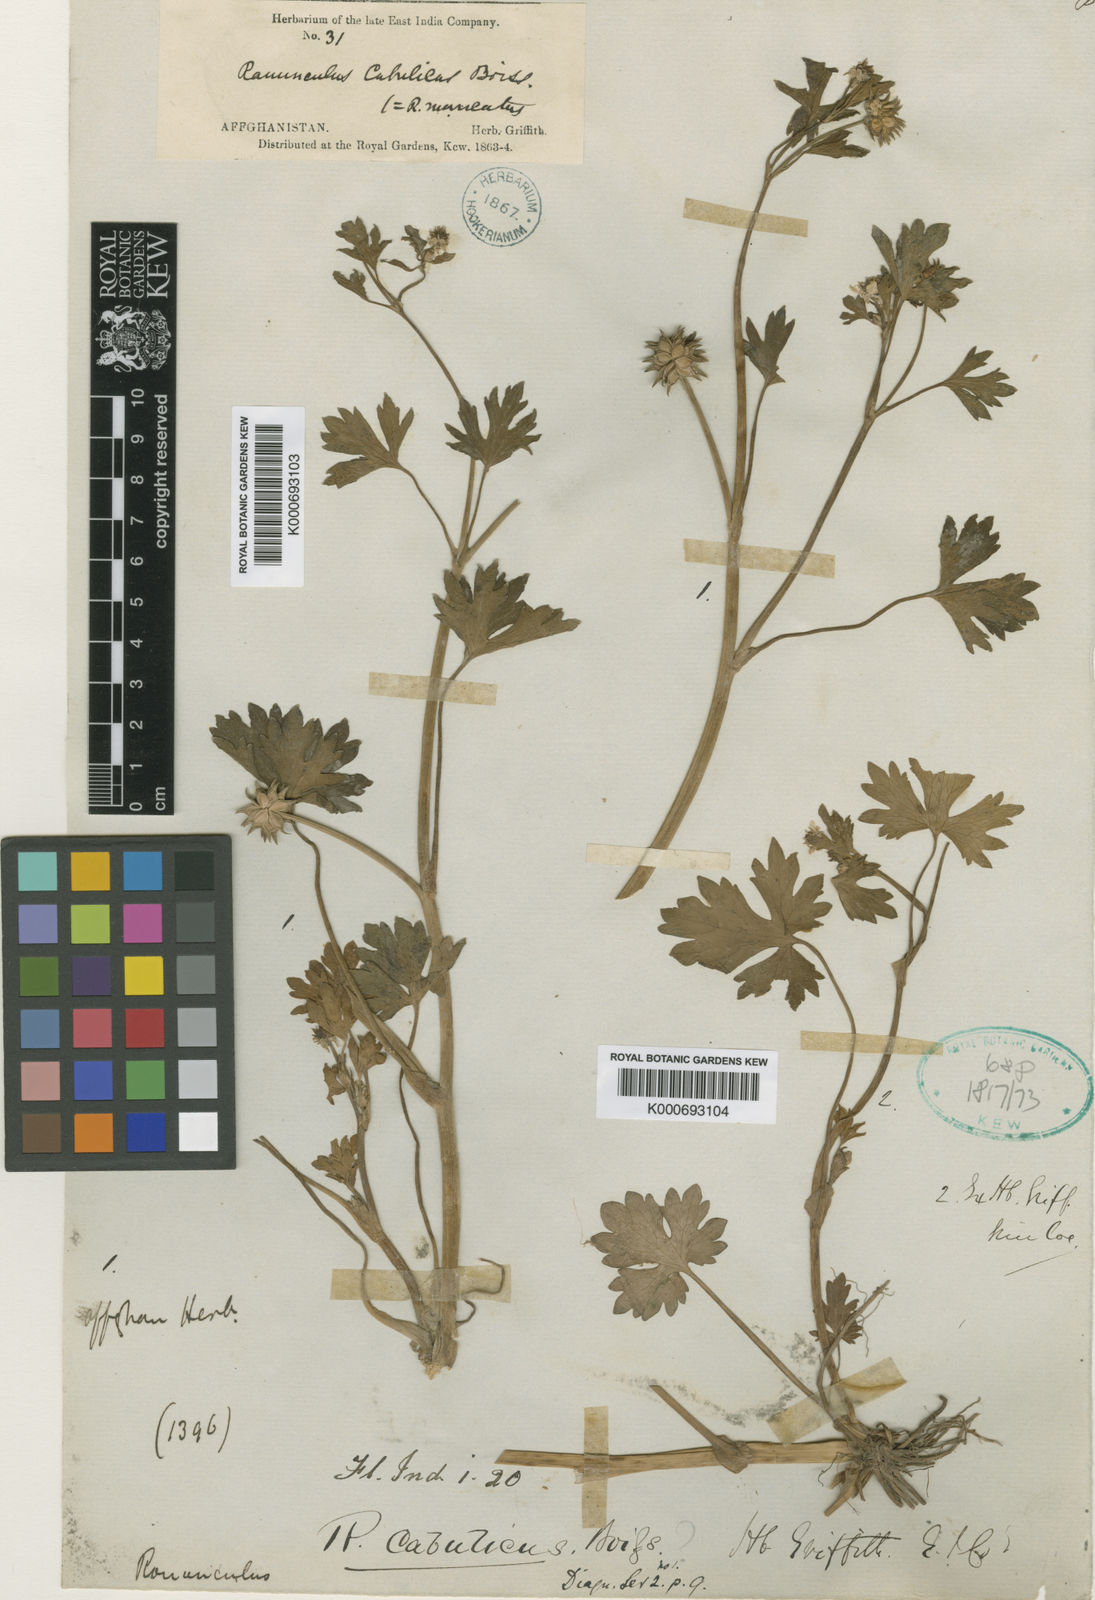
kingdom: Plantae
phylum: Tracheophyta
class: Magnoliopsida
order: Ranunculales
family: Ranunculaceae
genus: Ranunculus
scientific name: Ranunculus muricatus
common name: Rough-fruited buttercup
